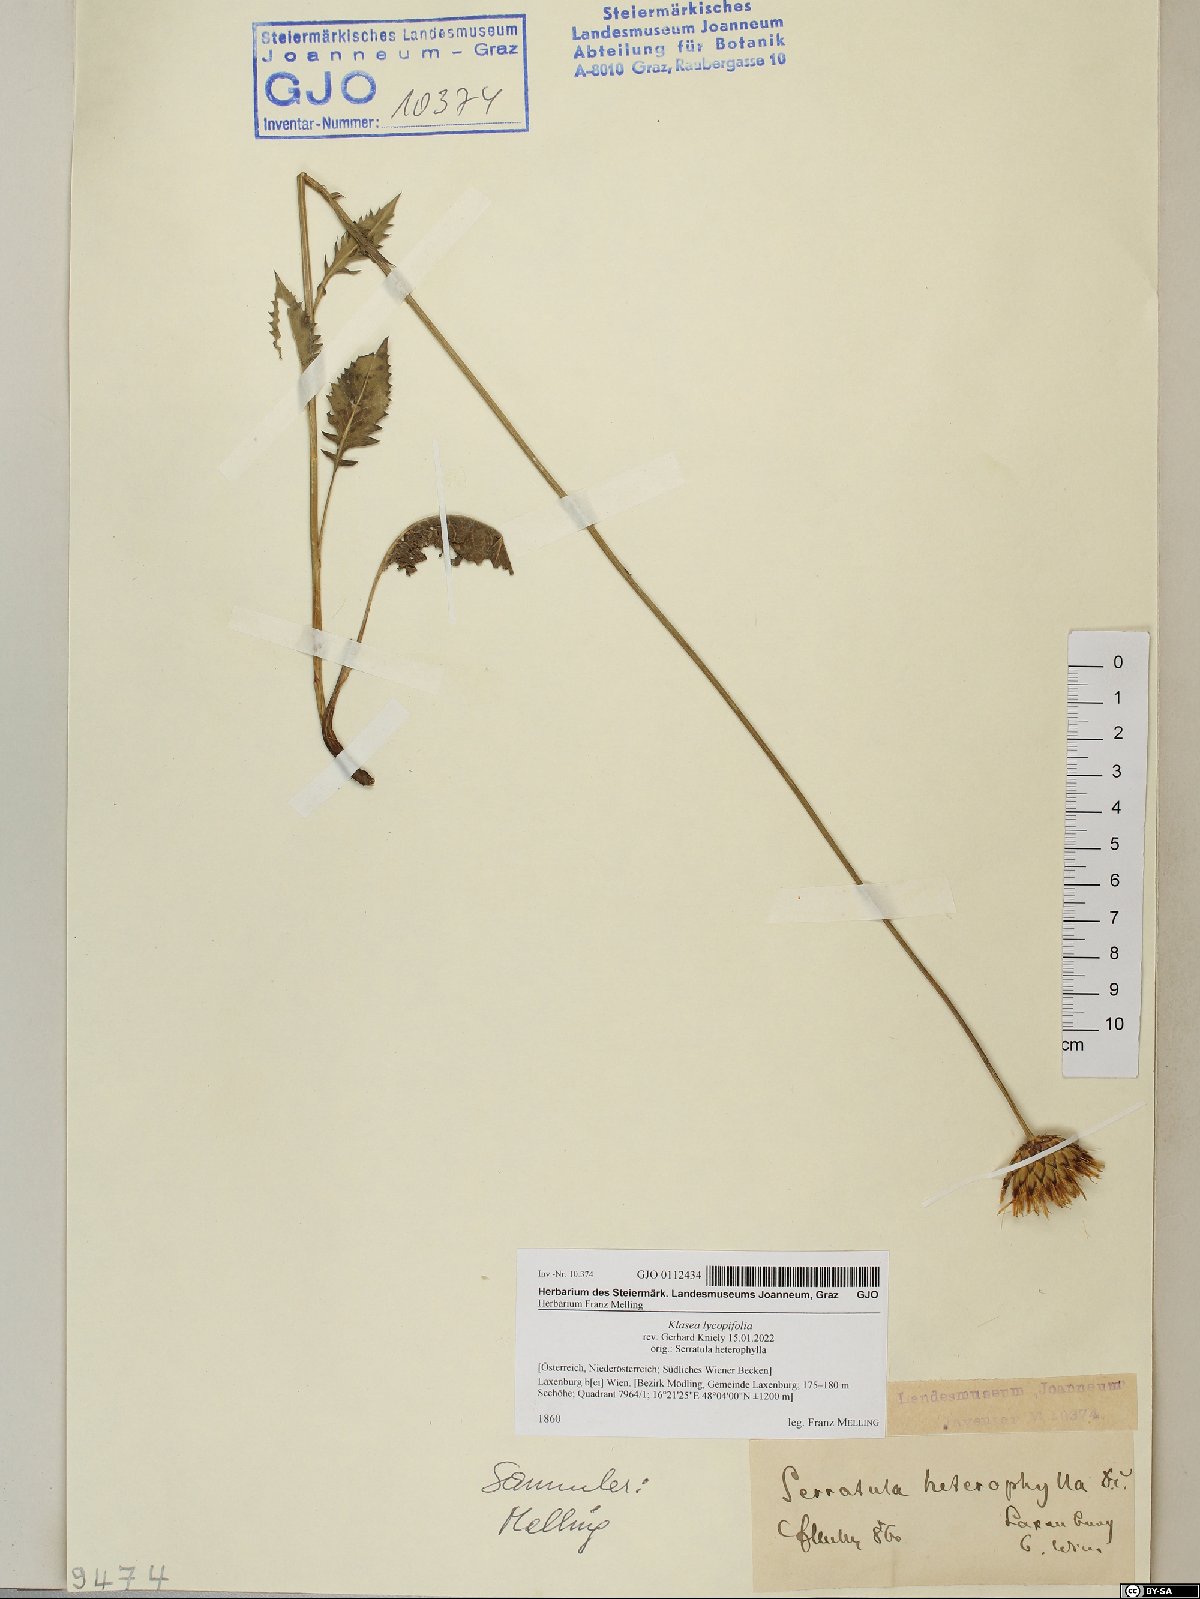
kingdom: Plantae
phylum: Tracheophyta
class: Magnoliopsida
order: Asterales
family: Asteraceae
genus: Klasea
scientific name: Klasea lycopifolia
